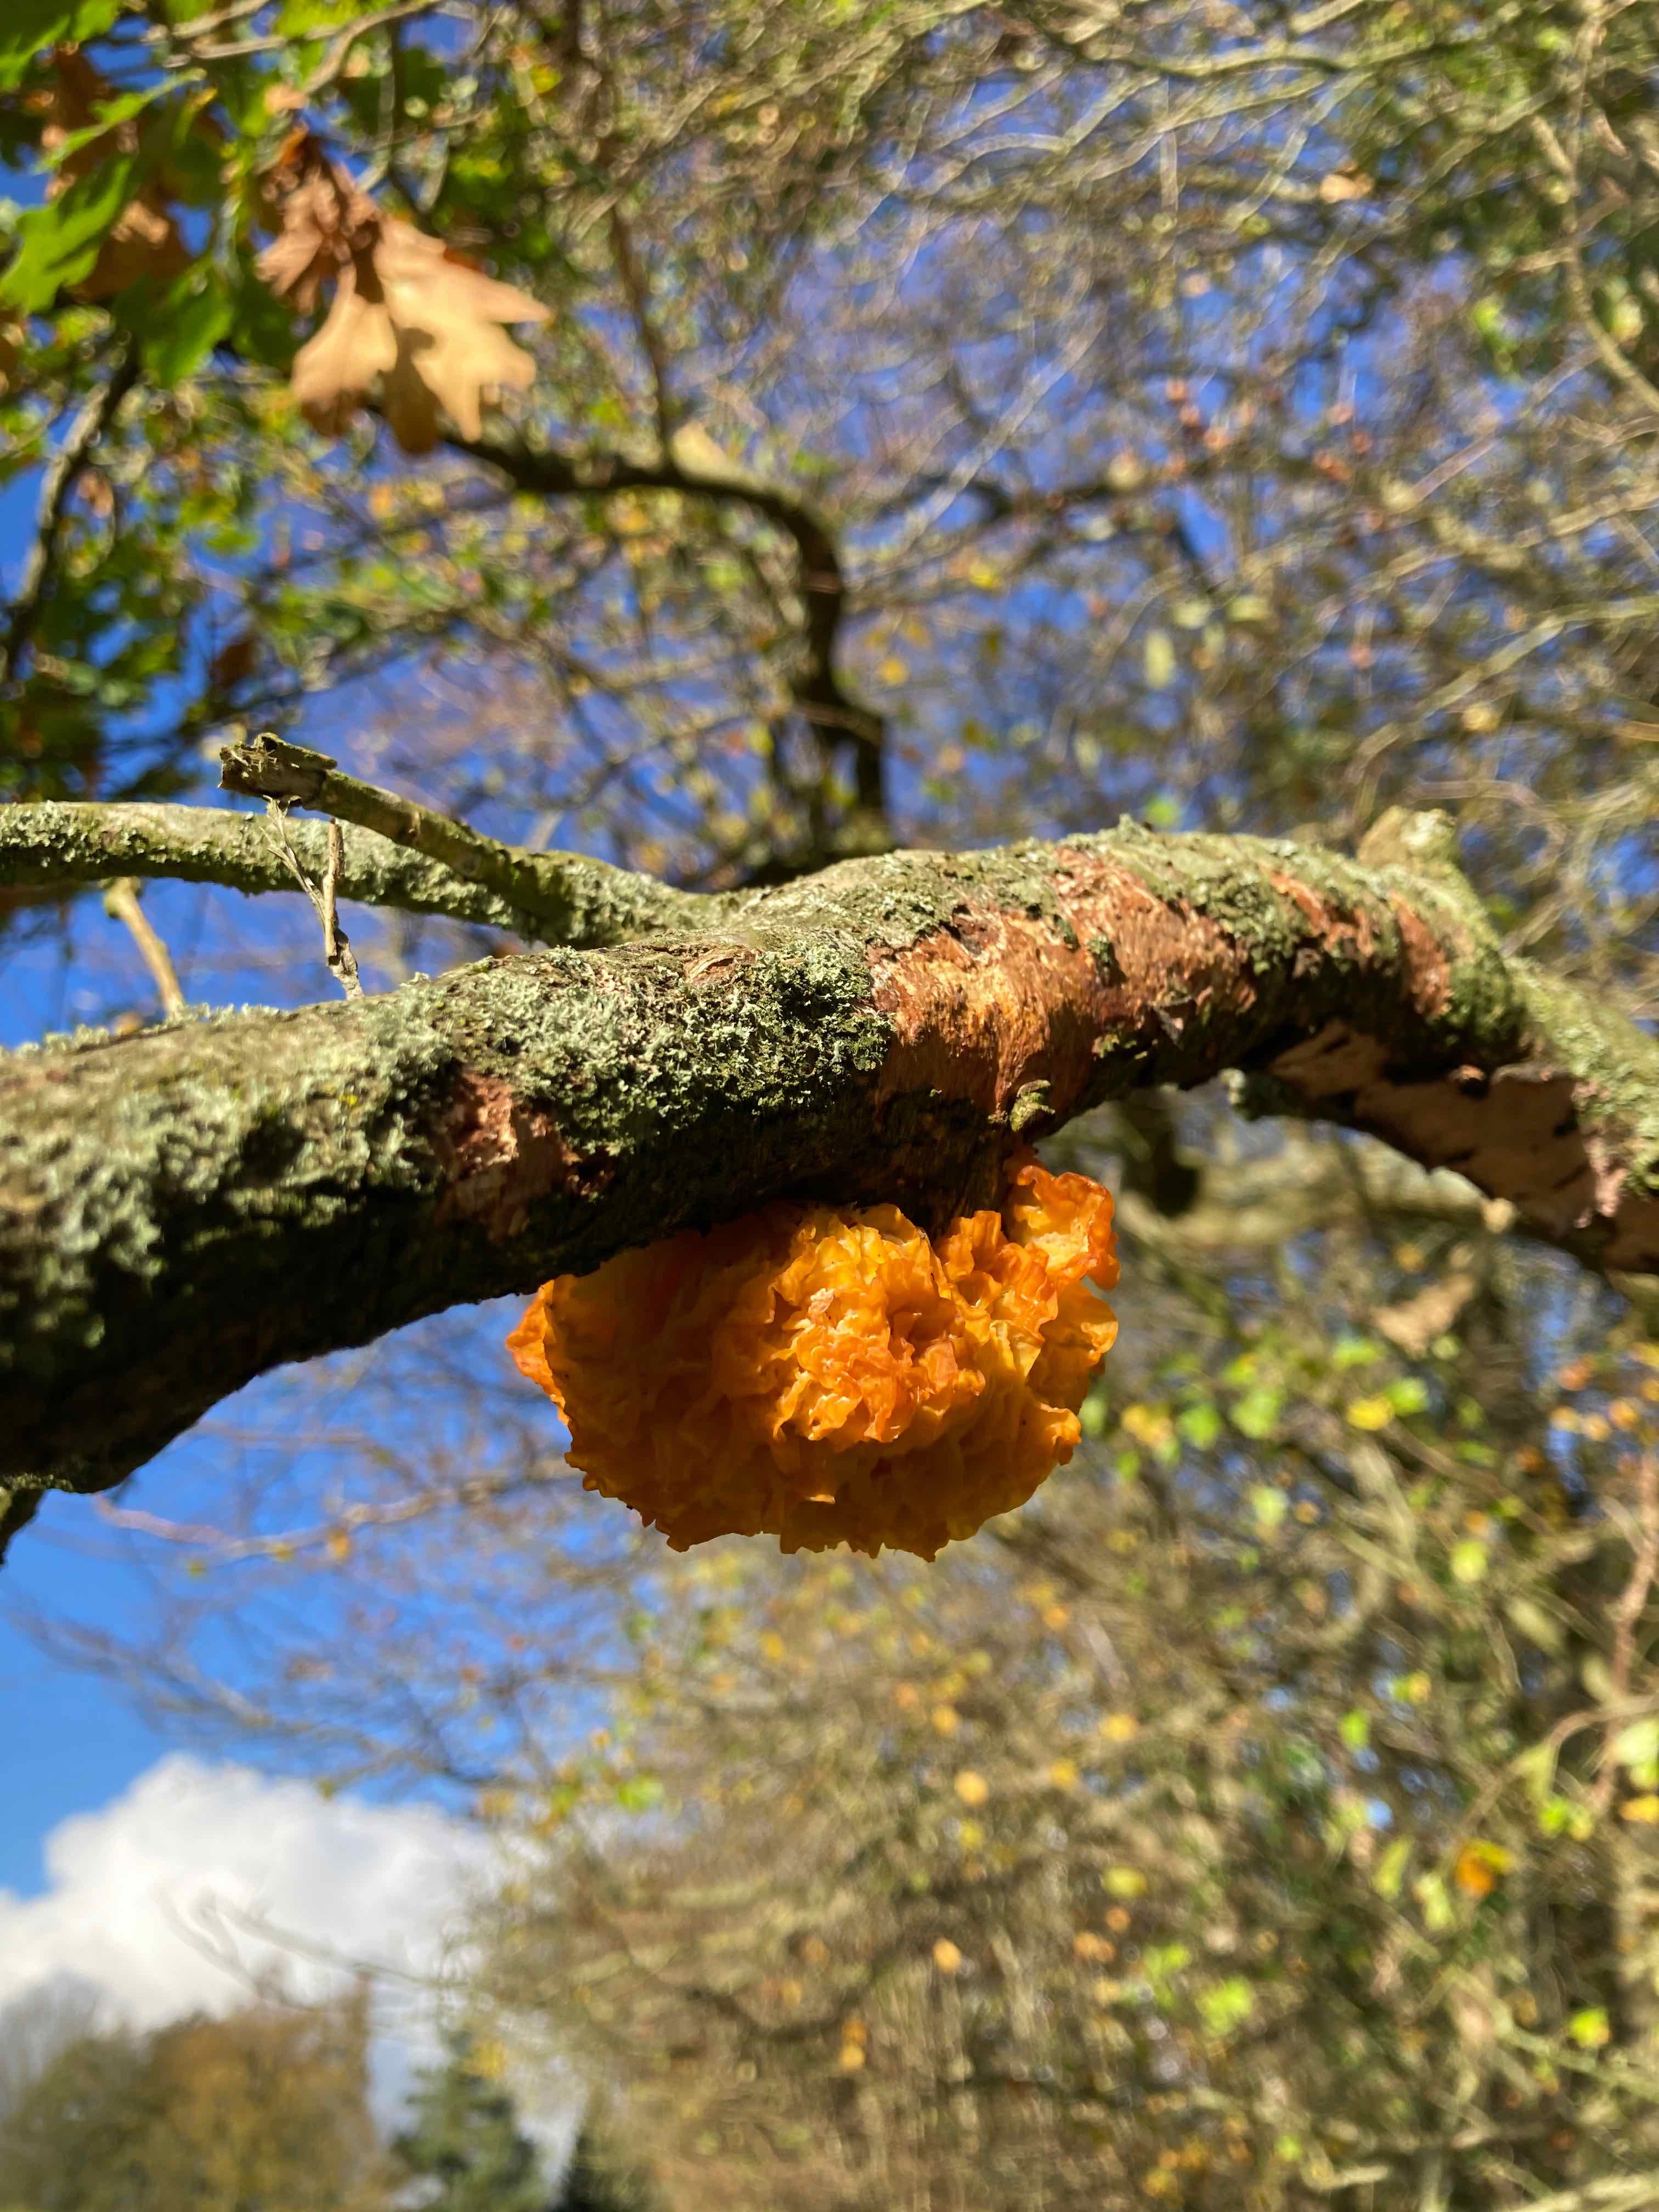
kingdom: Fungi
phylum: Basidiomycota
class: Tremellomycetes
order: Tremellales
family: Tremellaceae
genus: Tremella
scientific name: Tremella mesenterica
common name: gul bævresvamp
